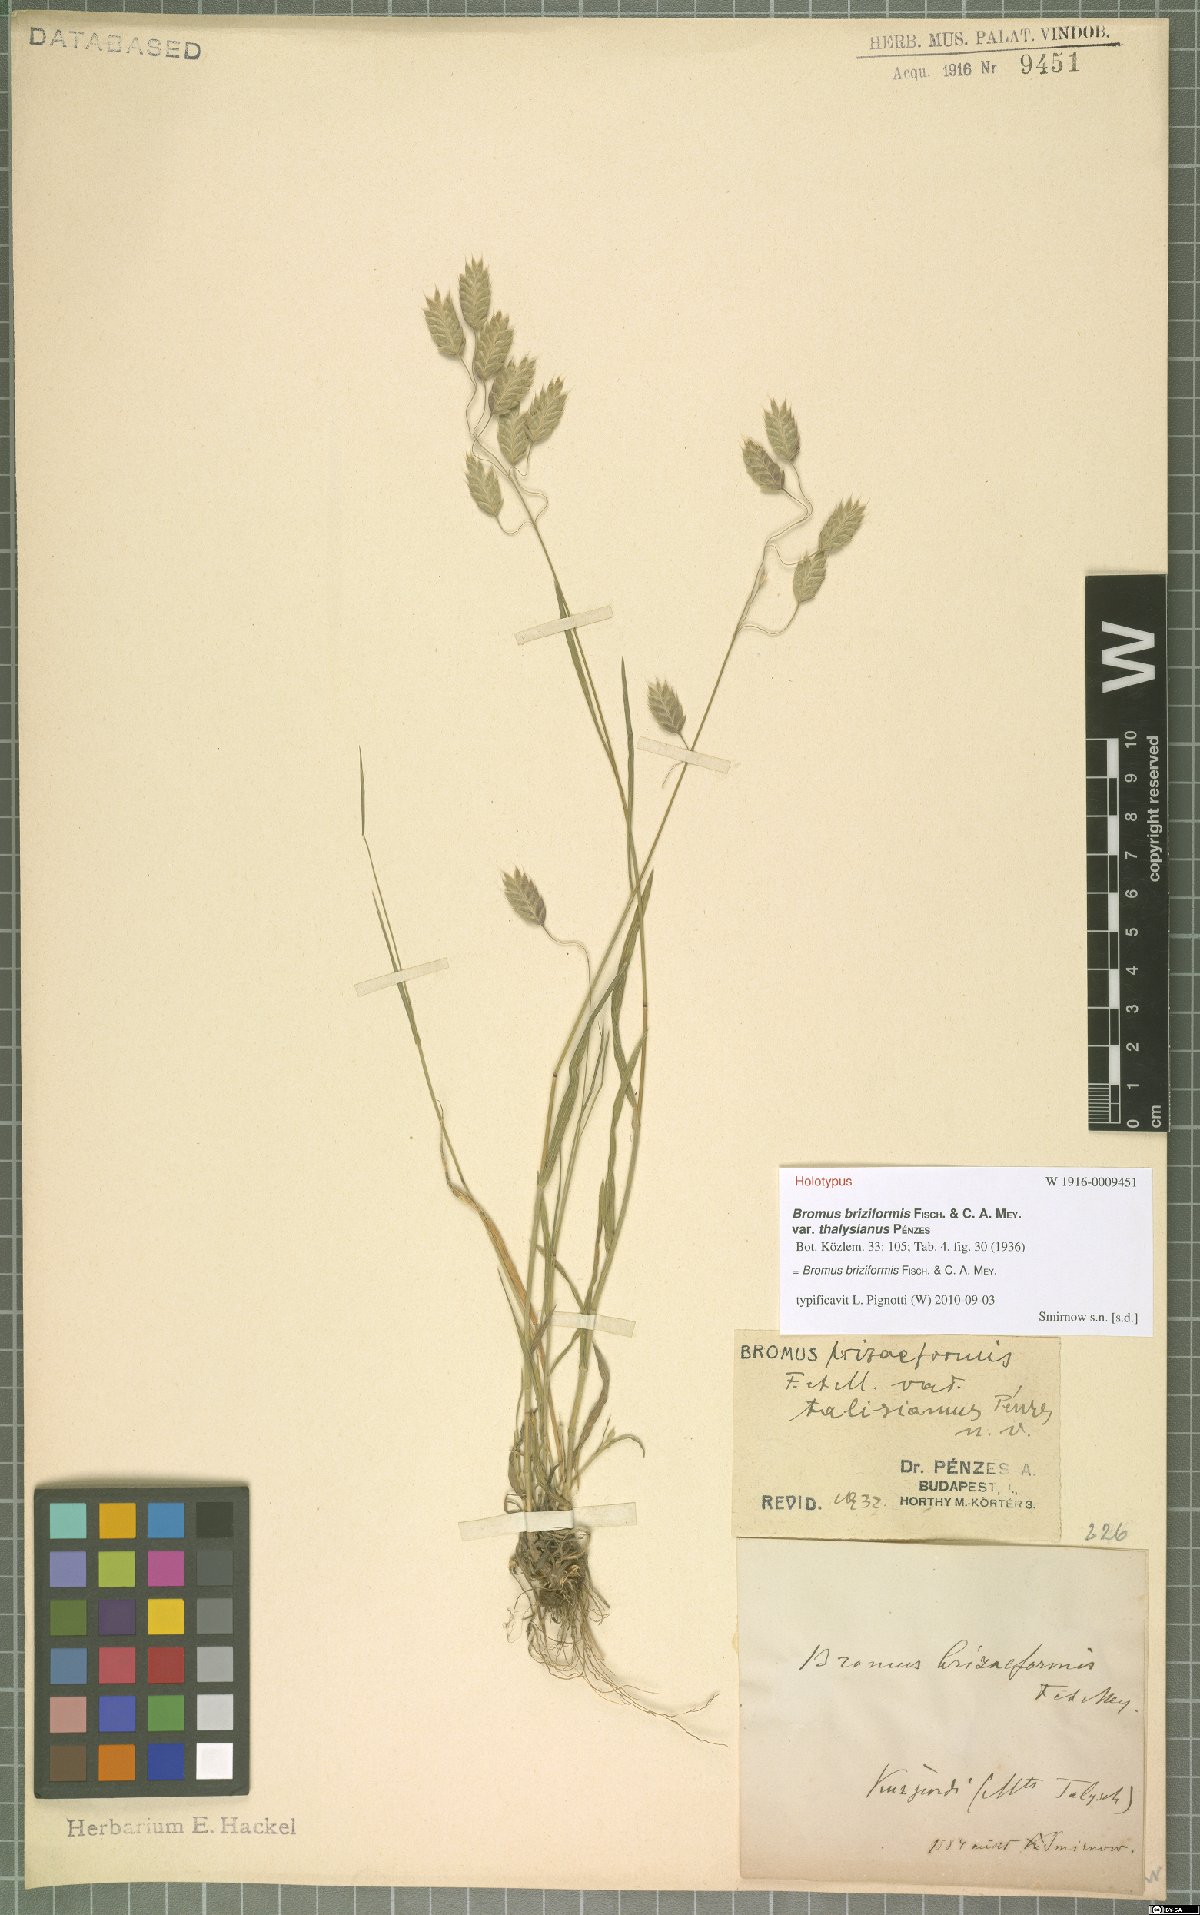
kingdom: Plantae
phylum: Tracheophyta
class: Liliopsida
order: Poales
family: Poaceae
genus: Bromus
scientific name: Bromus briziformis
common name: Rattlesnake brome
